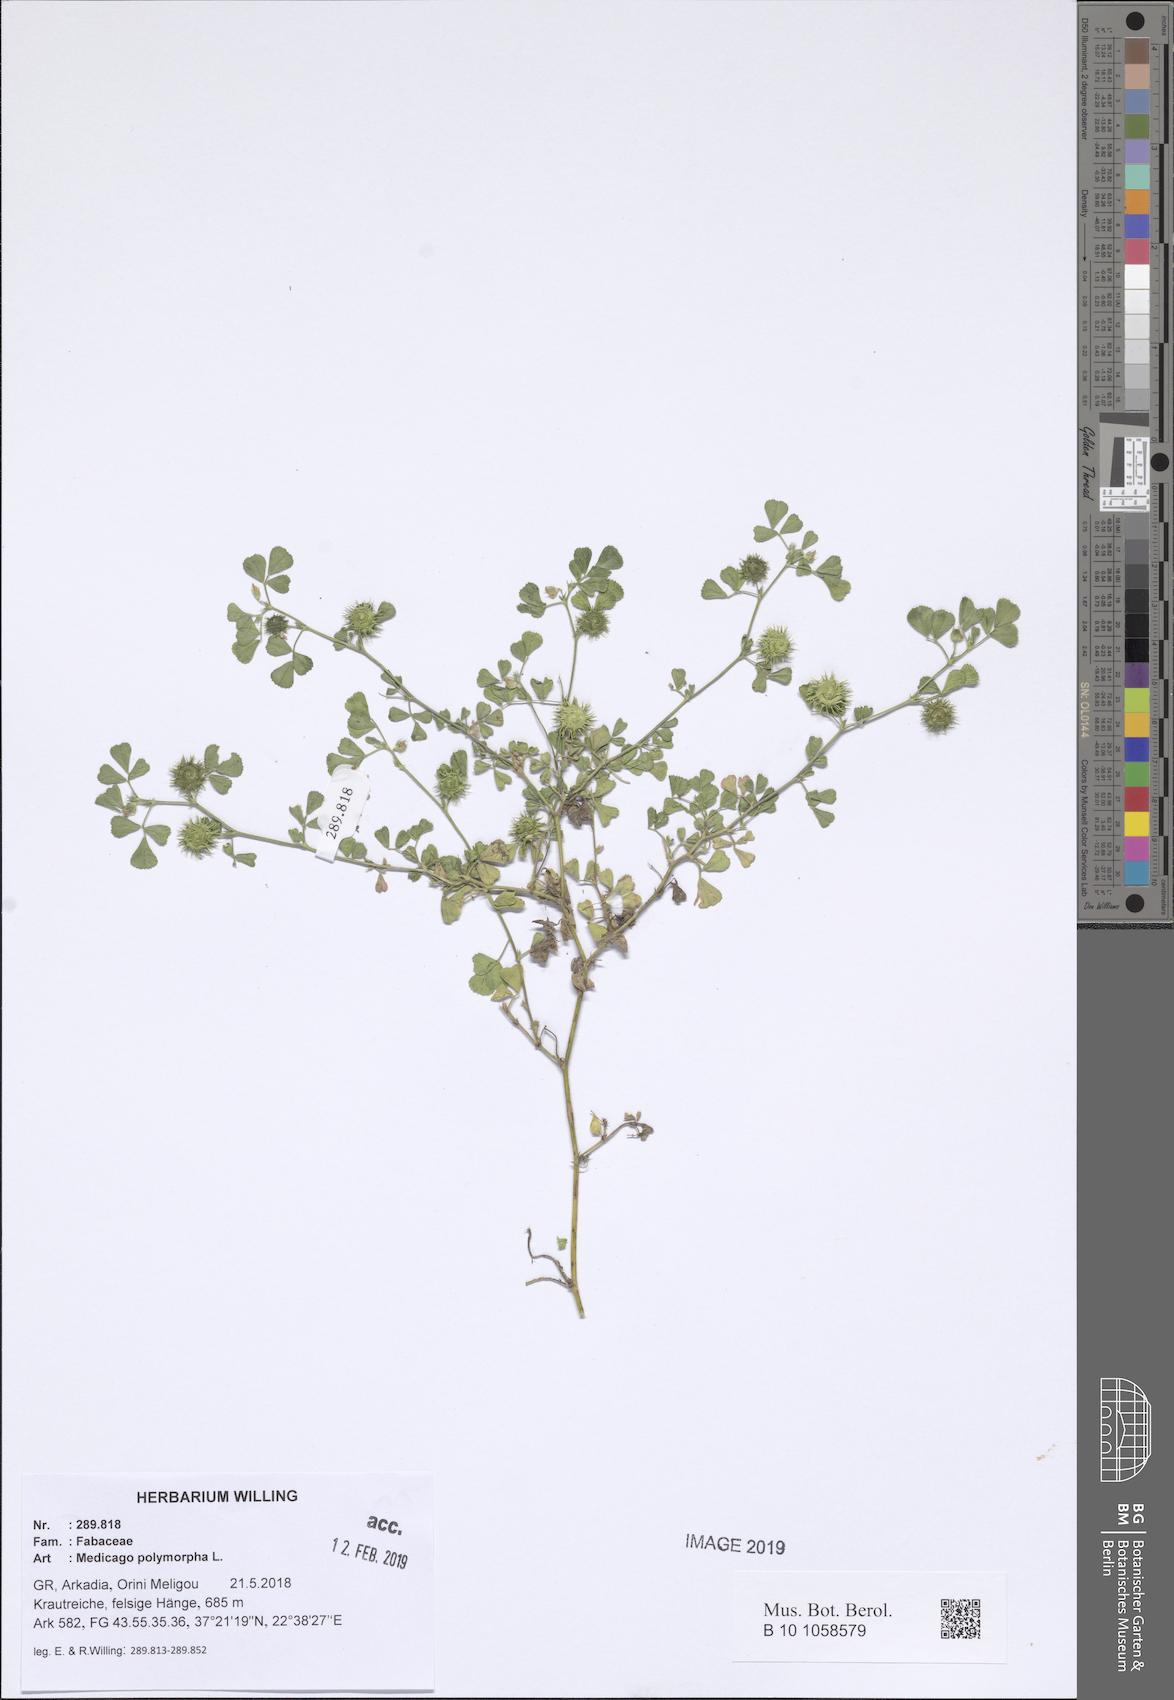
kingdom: Plantae
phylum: Tracheophyta
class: Magnoliopsida
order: Fabales
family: Fabaceae
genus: Medicago
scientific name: Medicago polymorpha
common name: Burclover
